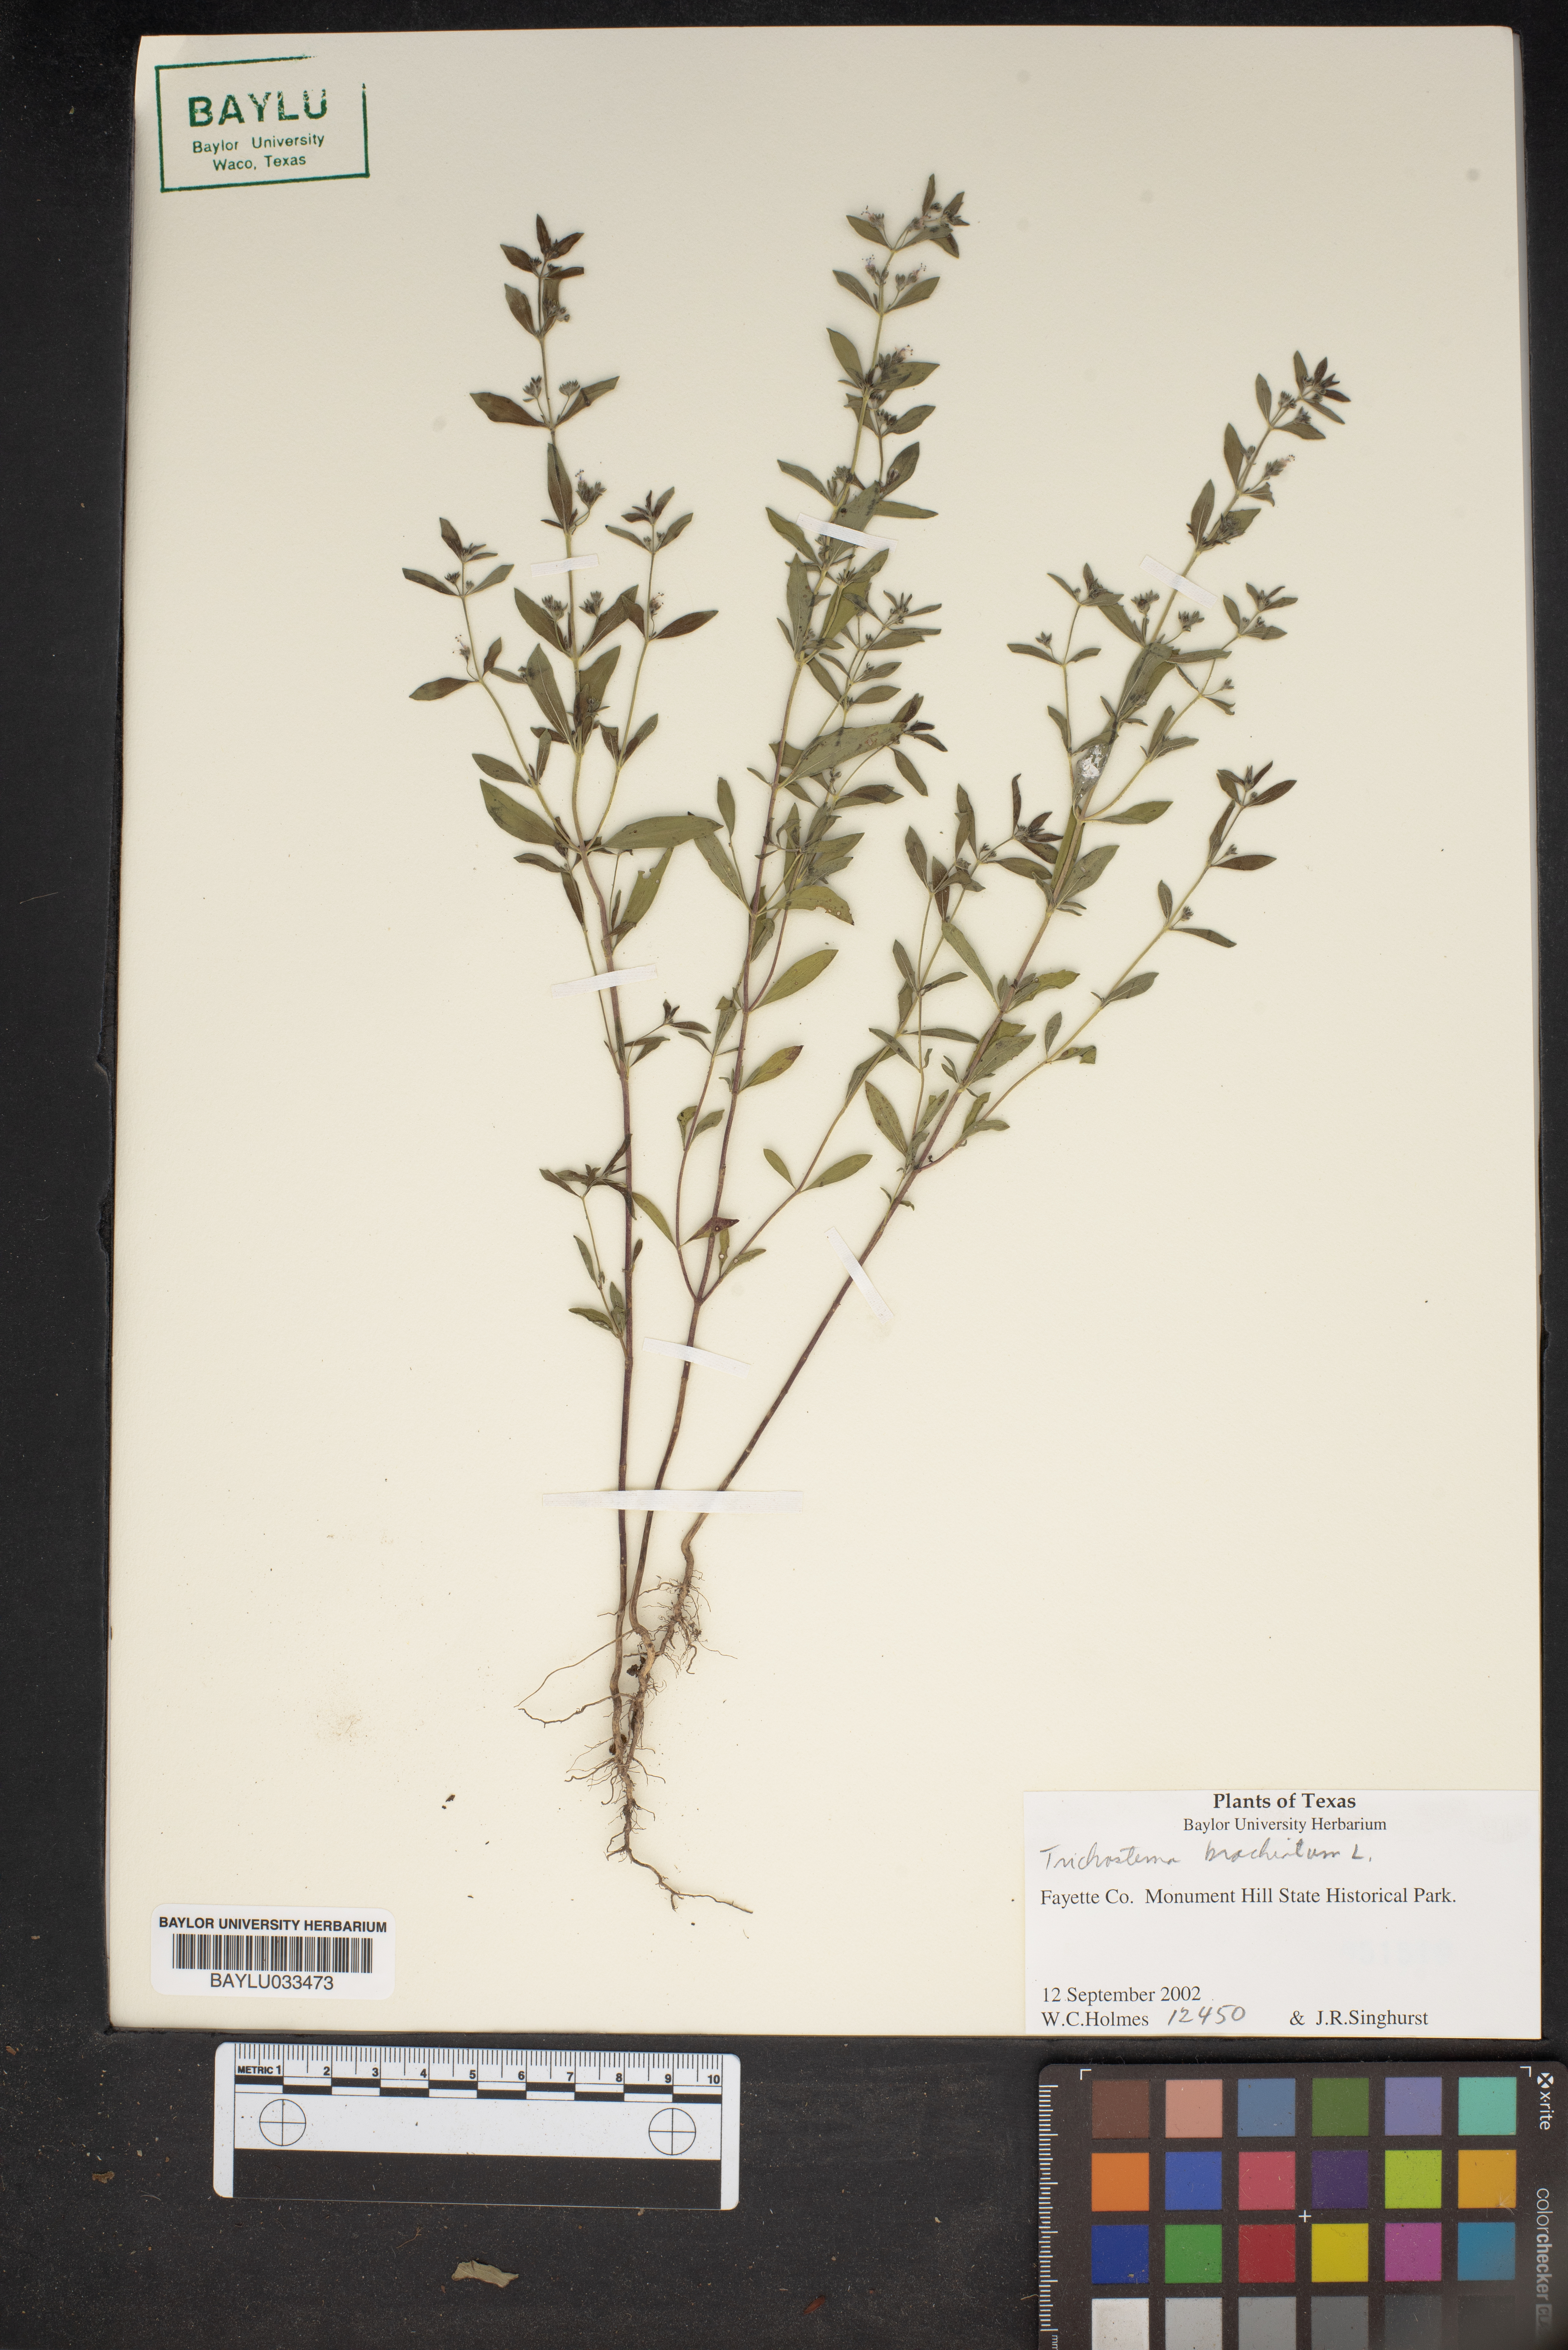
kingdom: Plantae
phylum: Tracheophyta
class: Magnoliopsida
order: Lamiales
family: Lamiaceae
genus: Trichostema
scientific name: Trichostema brachiatum
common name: False pennyroyal
